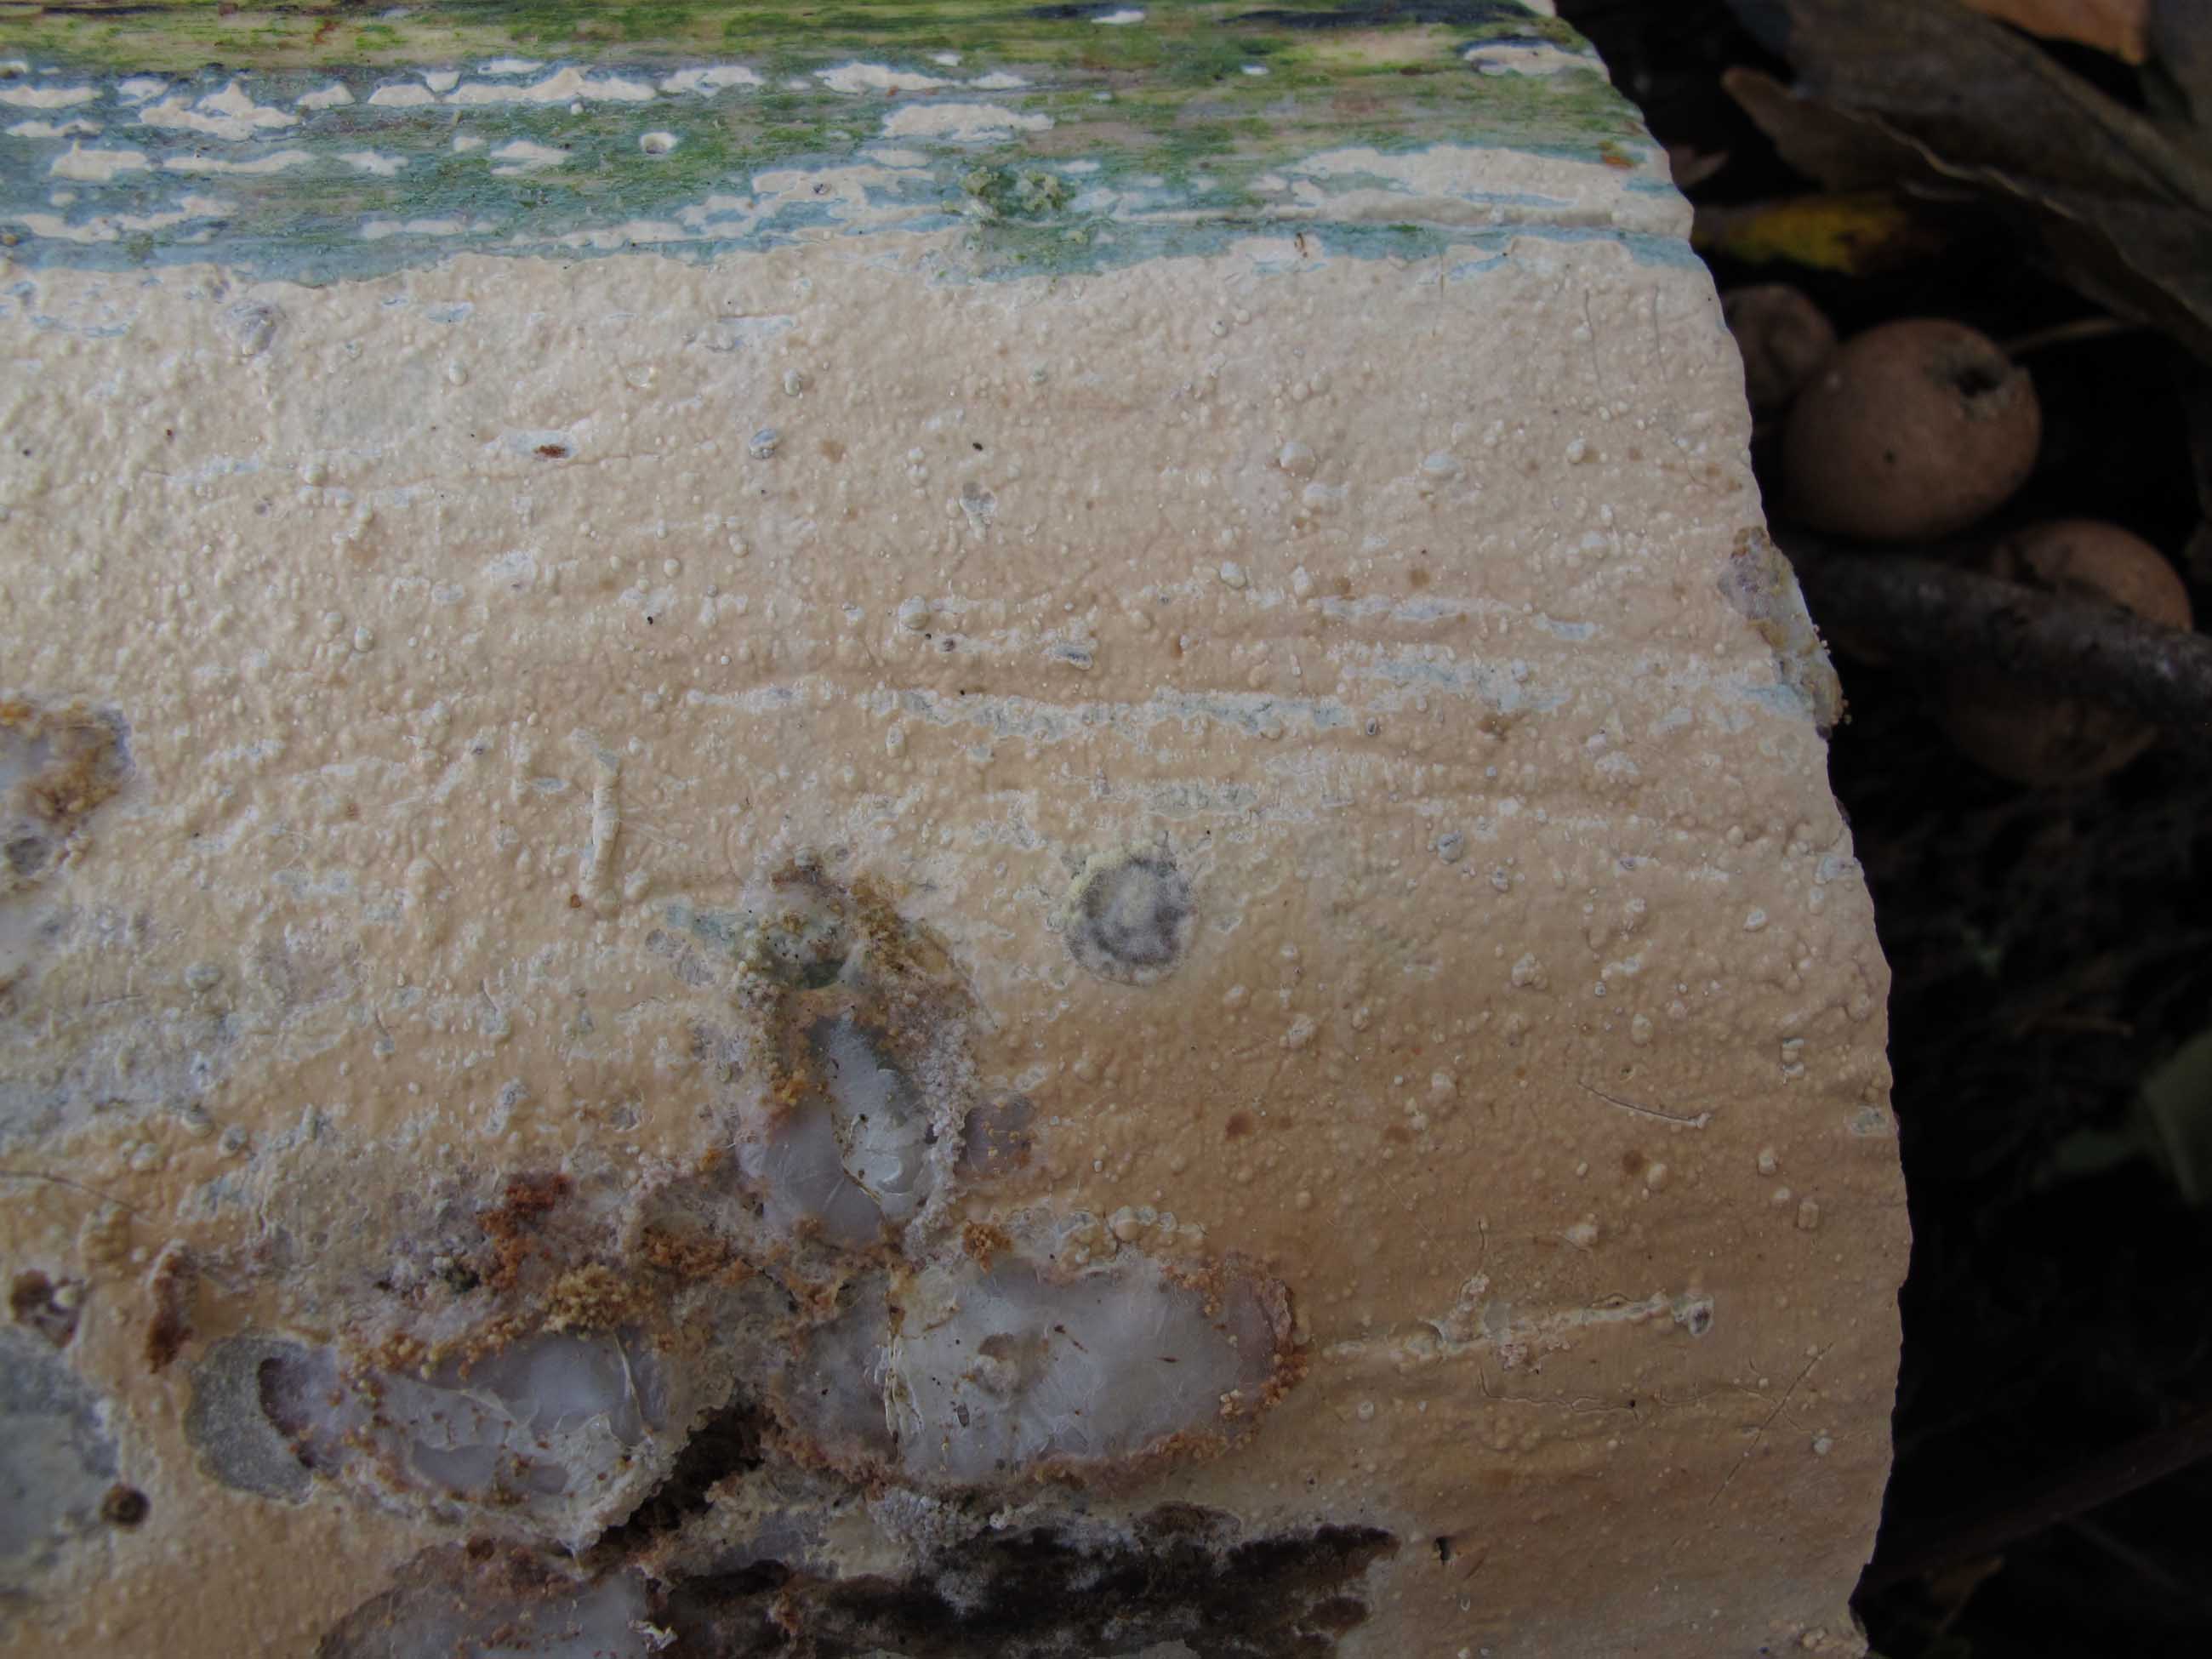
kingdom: Fungi
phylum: Basidiomycota
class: Agaricomycetes
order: Russulales
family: Stereaceae
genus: Gloeocystidiellum
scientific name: Gloeocystidiellum porosum
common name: mælkehvid olieskind
